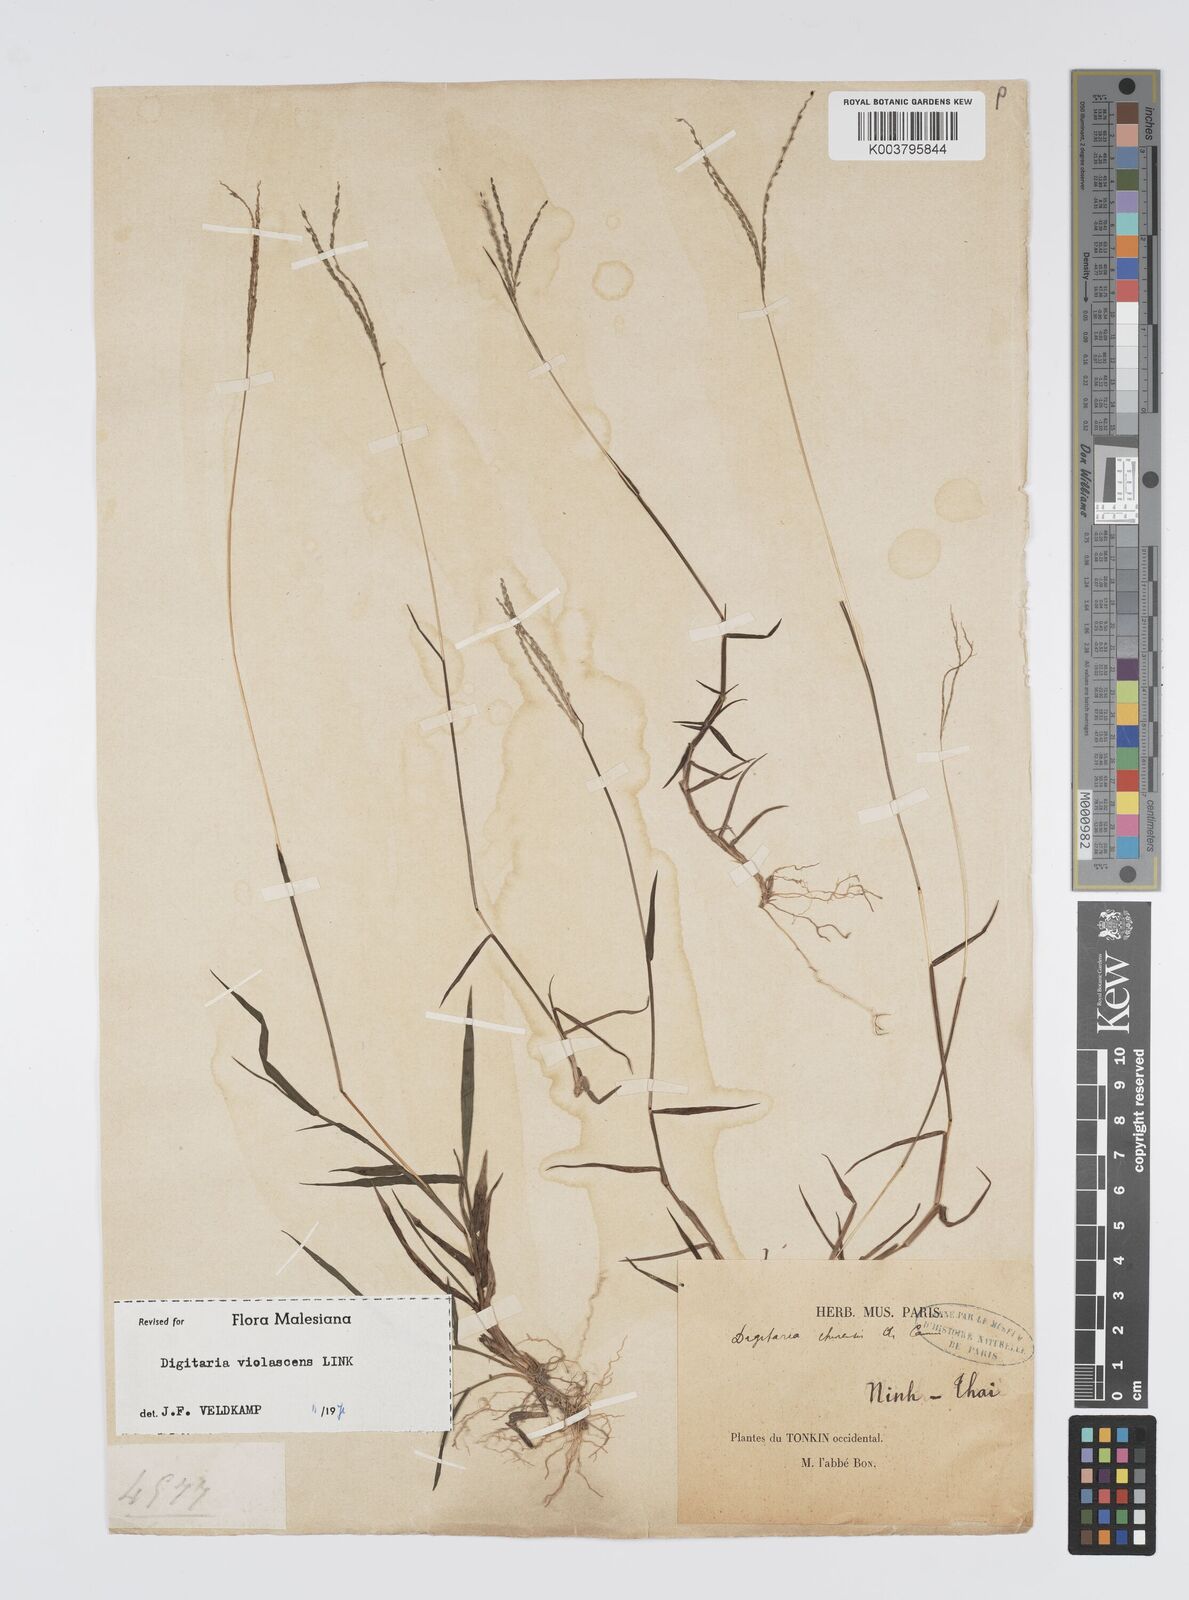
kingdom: Plantae
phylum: Tracheophyta
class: Liliopsida
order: Poales
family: Poaceae
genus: Digitaria
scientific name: Digitaria violascens
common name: Violet crabgrass
